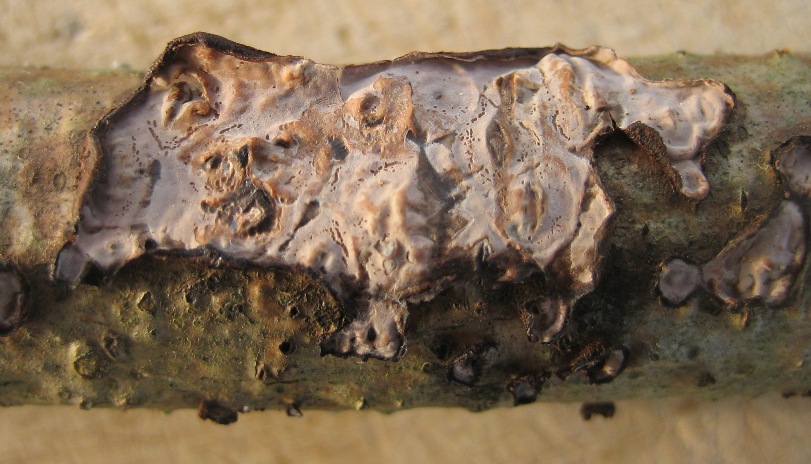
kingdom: Fungi
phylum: Basidiomycota
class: Agaricomycetes
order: Russulales
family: Peniophoraceae
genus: Peniophora
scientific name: Peniophora quercina
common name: ege-voksskind
